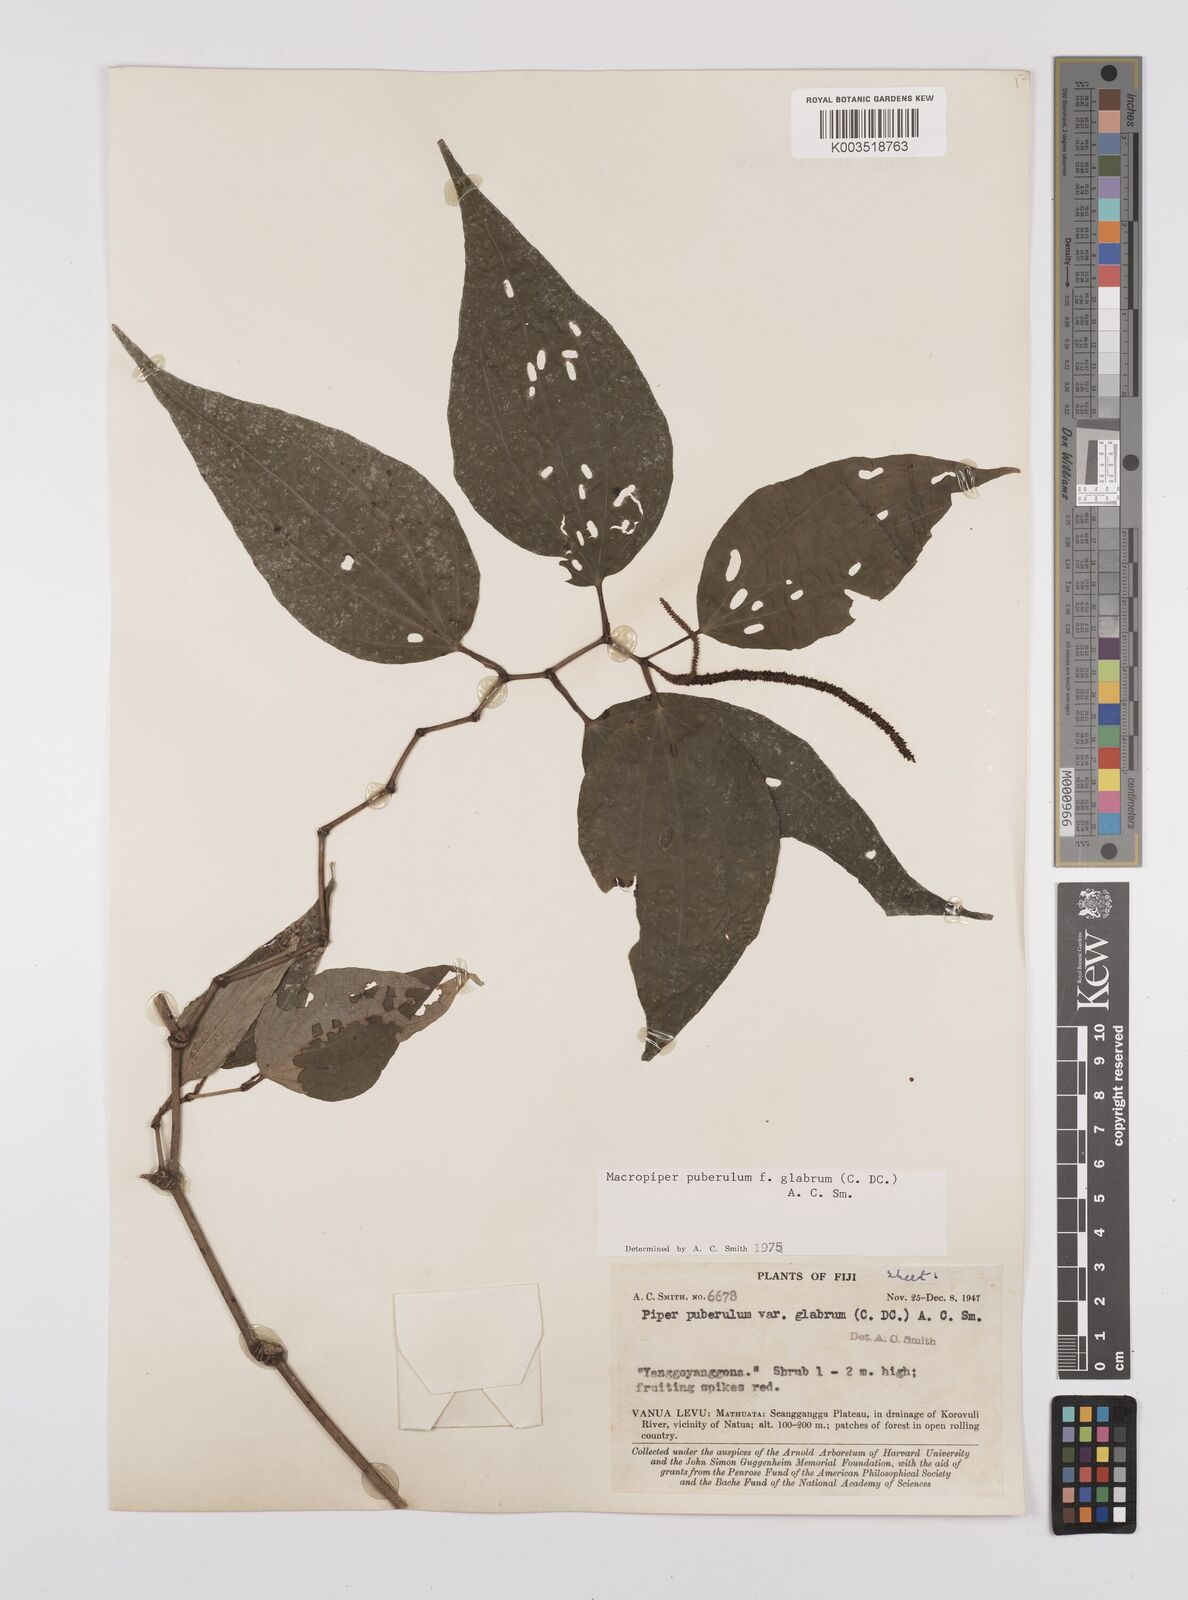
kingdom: Plantae
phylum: Tracheophyta
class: Magnoliopsida
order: Piperales
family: Piperaceae
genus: Macropiper
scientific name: Macropiper puberulum
